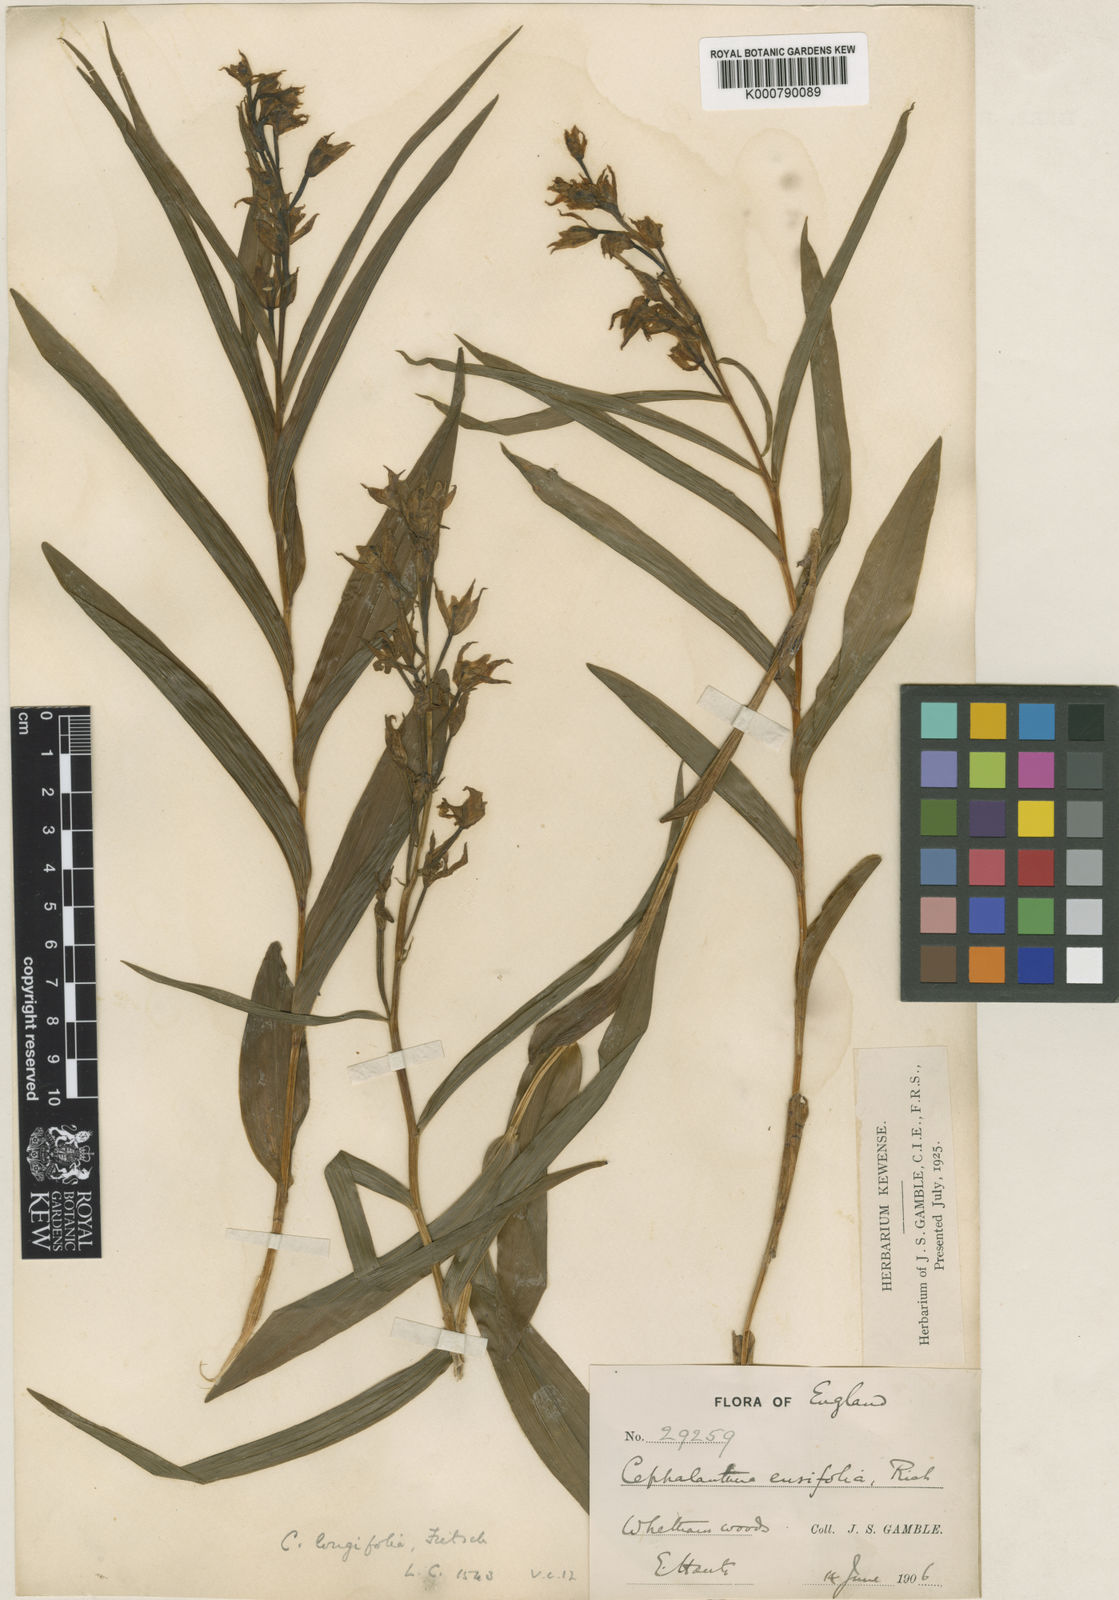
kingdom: Plantae
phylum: Tracheophyta
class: Liliopsida
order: Asparagales
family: Orchidaceae
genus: Cephalanthera
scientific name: Cephalanthera longifolia
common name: Narrow-leaved helleborine
